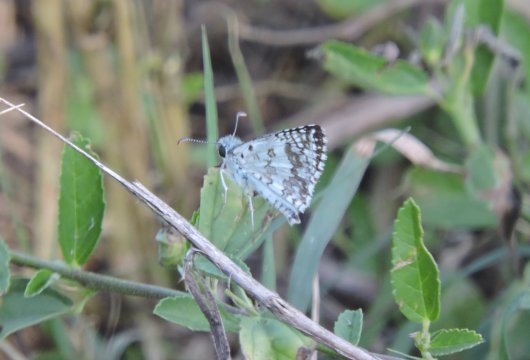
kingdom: Animalia
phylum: Arthropoda
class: Insecta
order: Lepidoptera
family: Hesperiidae
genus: Pyrgus
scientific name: Pyrgus
